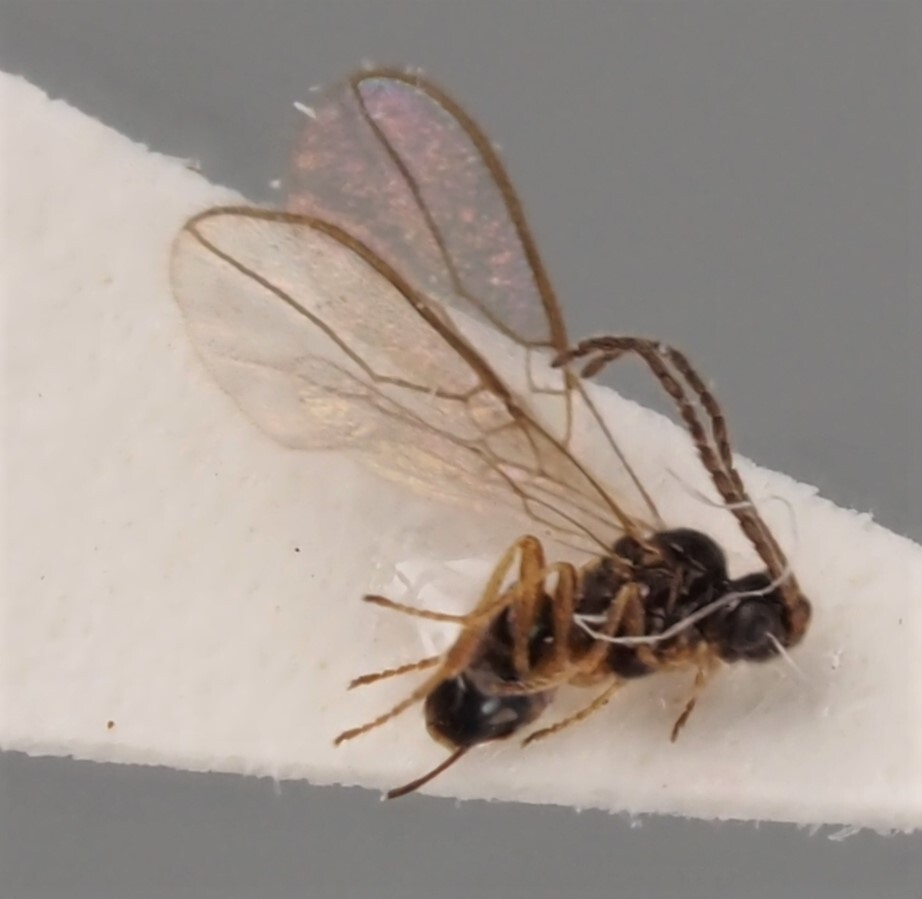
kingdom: Animalia
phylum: Arthropoda
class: Insecta
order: Hymenoptera
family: Braconidae
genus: Dinotrema
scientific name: Dinotrema necrophilum
